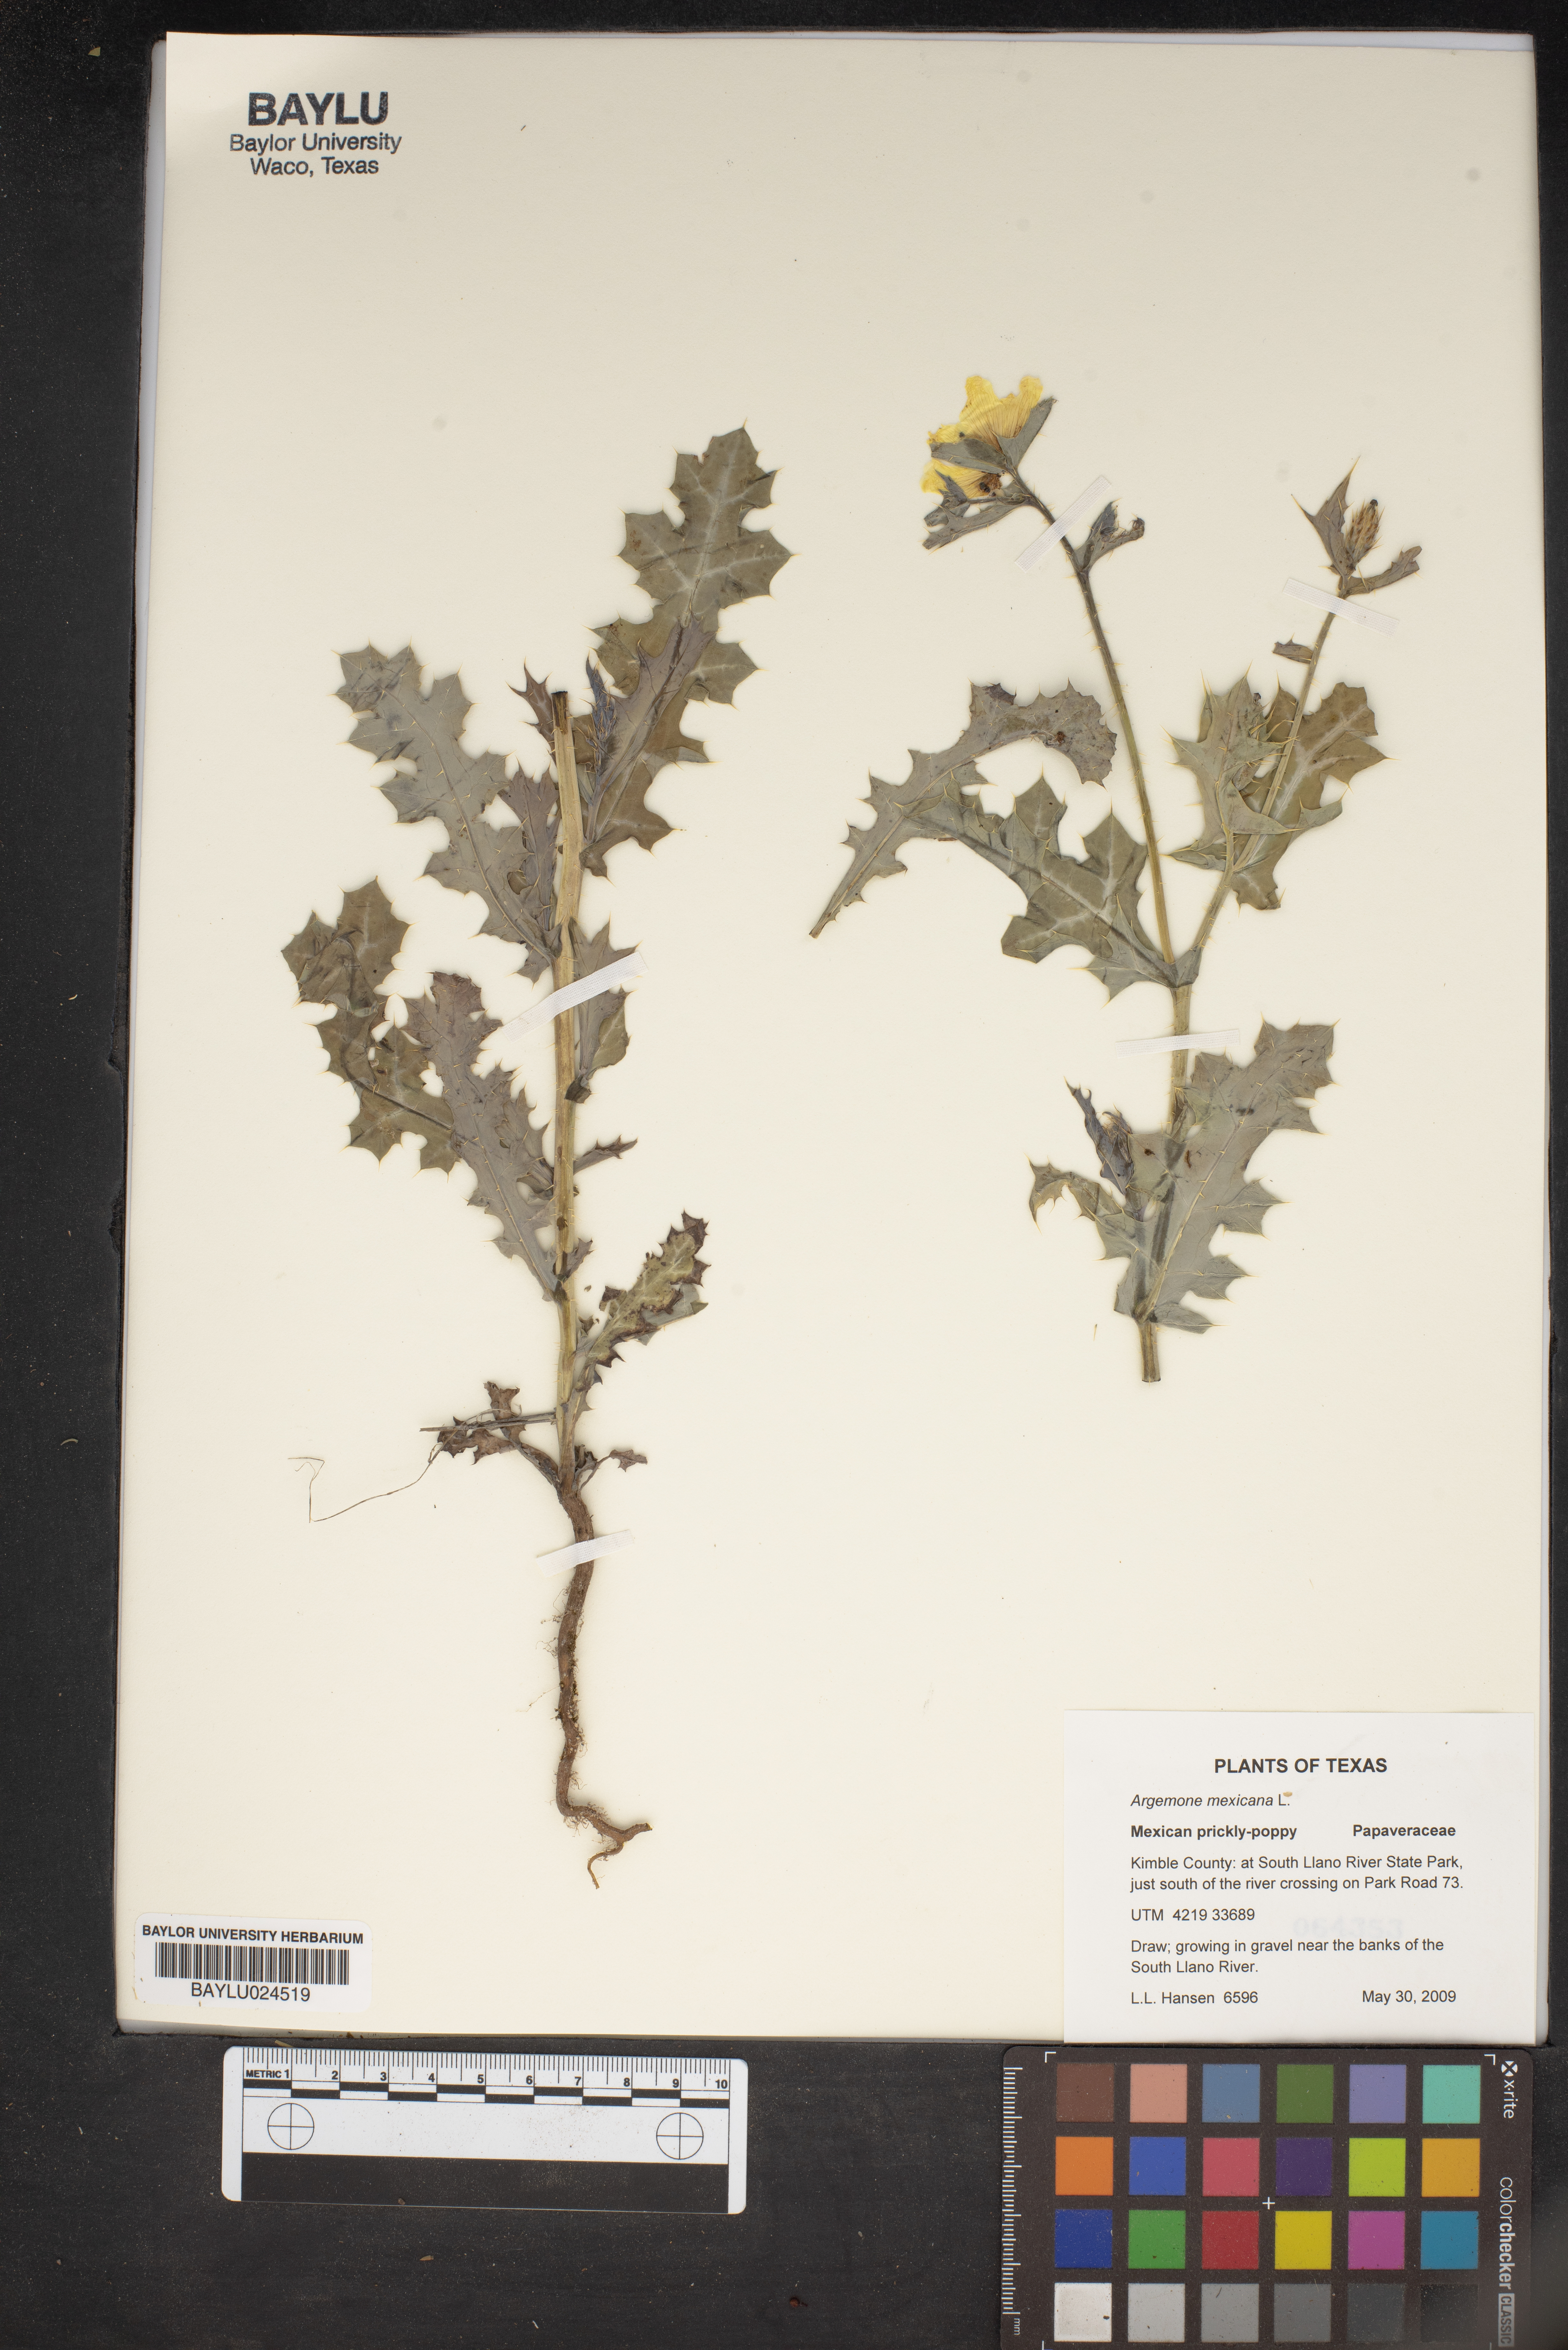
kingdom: Plantae
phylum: Tracheophyta
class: Magnoliopsida
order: Ranunculales
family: Papaveraceae
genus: Argemone
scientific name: Argemone mexicana
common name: Mexican poppy
